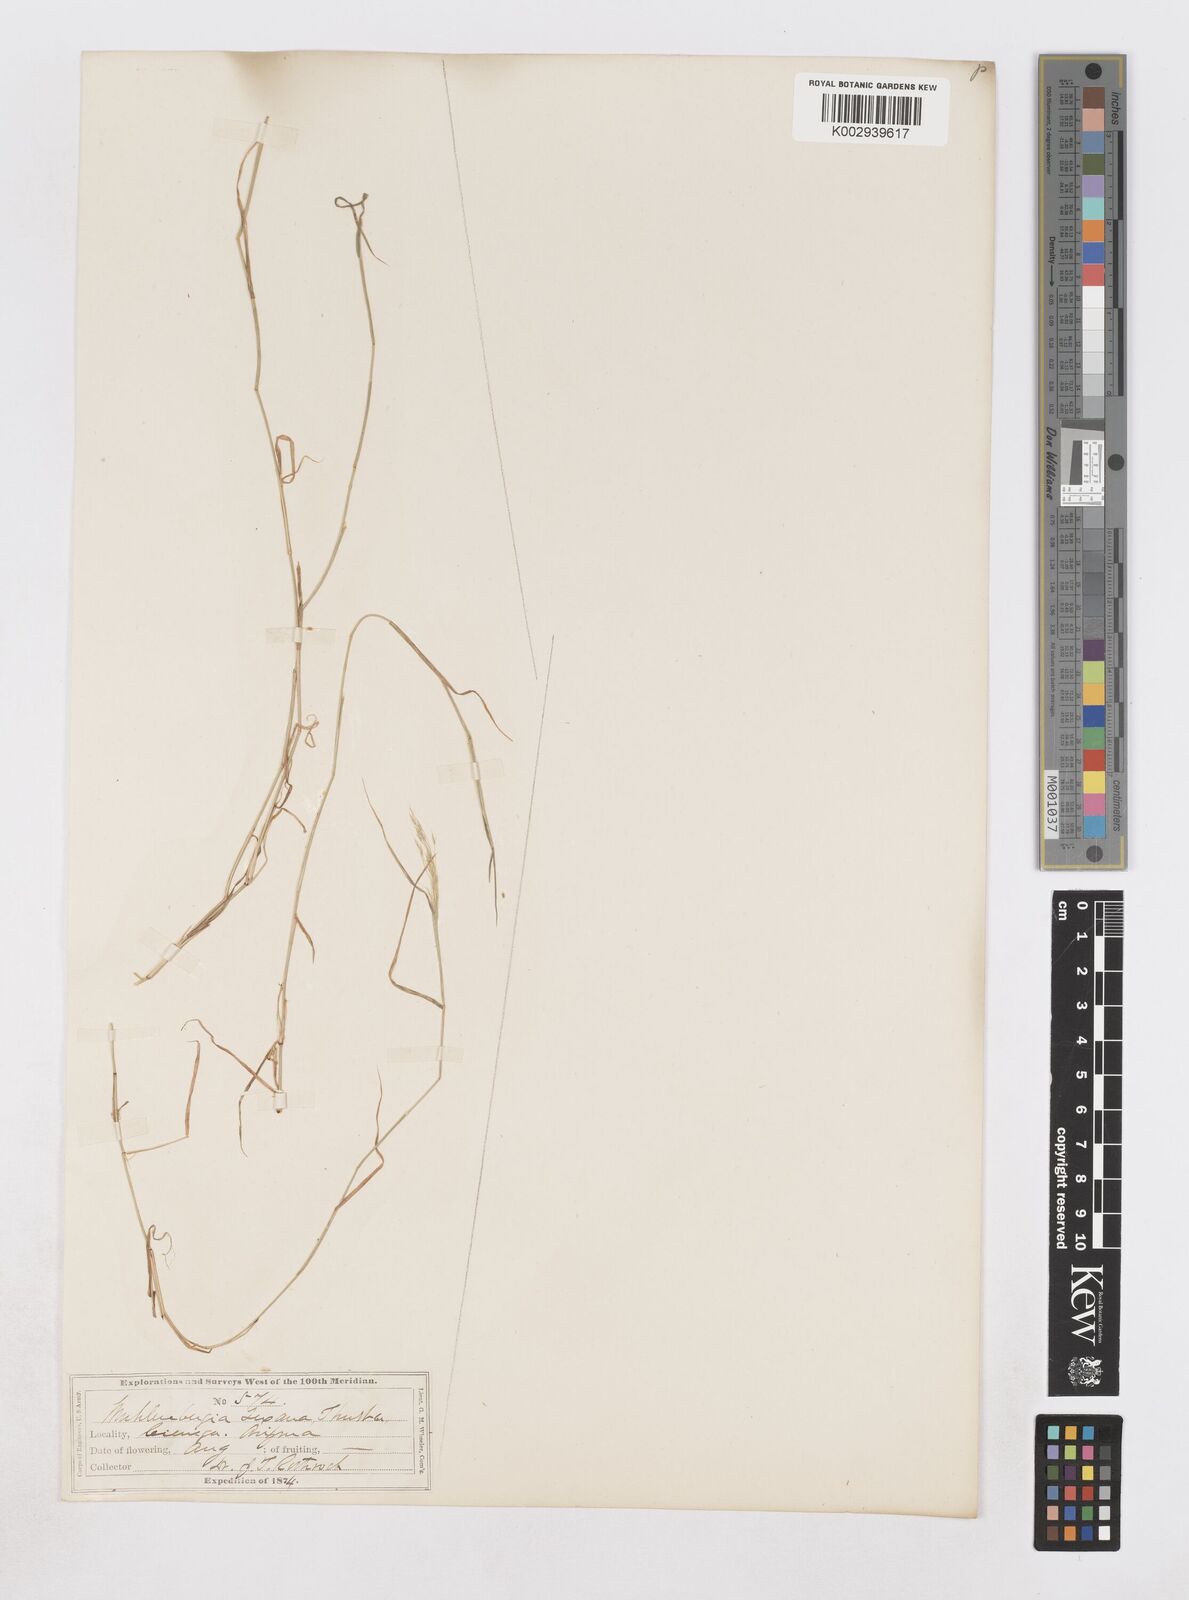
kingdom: Plantae
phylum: Tracheophyta
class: Liliopsida
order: Poales
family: Poaceae
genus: Muhlenbergia
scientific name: Muhlenbergia porteri
